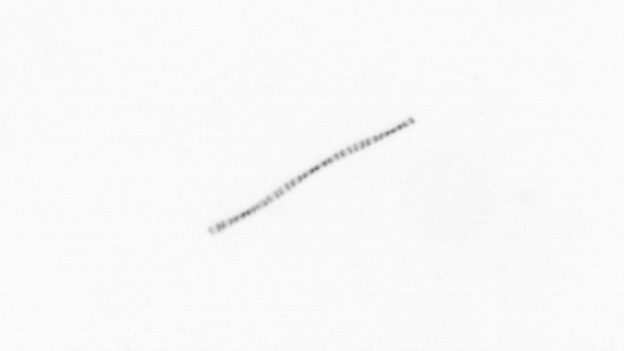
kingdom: Chromista
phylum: Ochrophyta
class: Bacillariophyceae
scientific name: Bacillariophyceae
